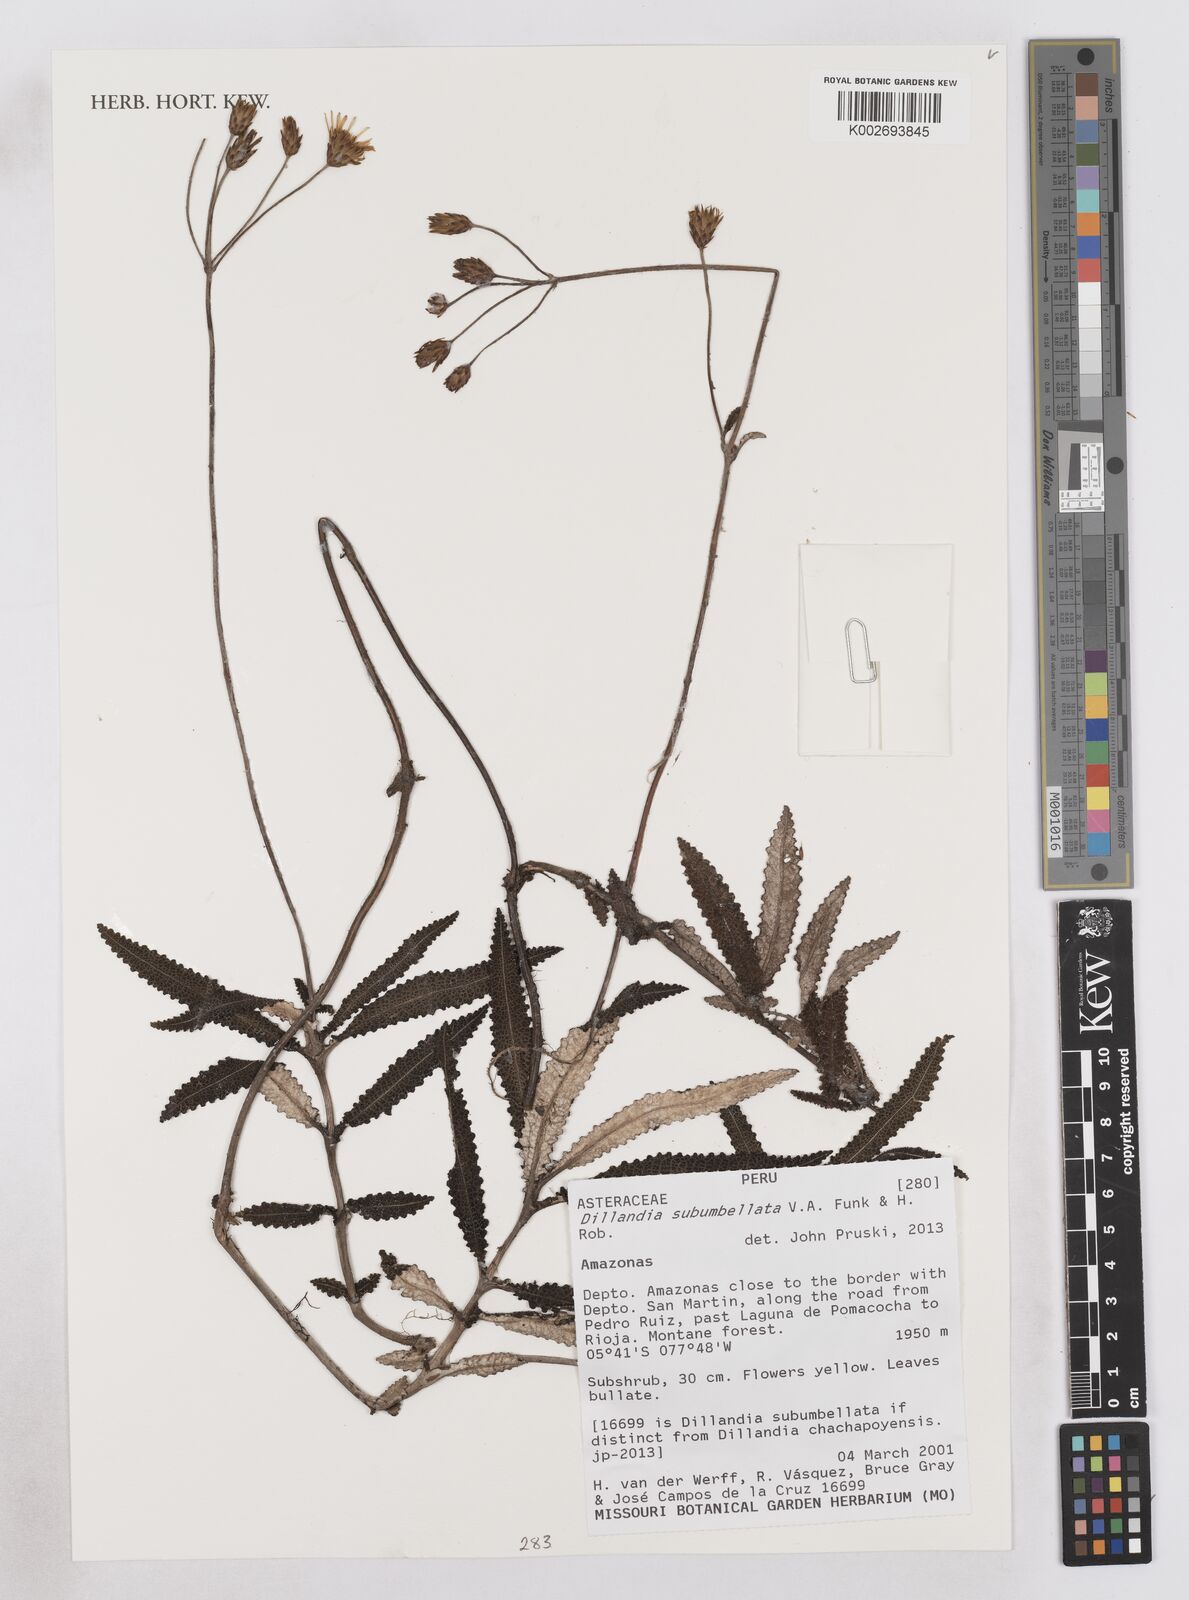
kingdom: Plantae
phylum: Tracheophyta
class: Magnoliopsida
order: Asterales
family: Asteraceae
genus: Dillandia
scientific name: Dillandia subumbellata
